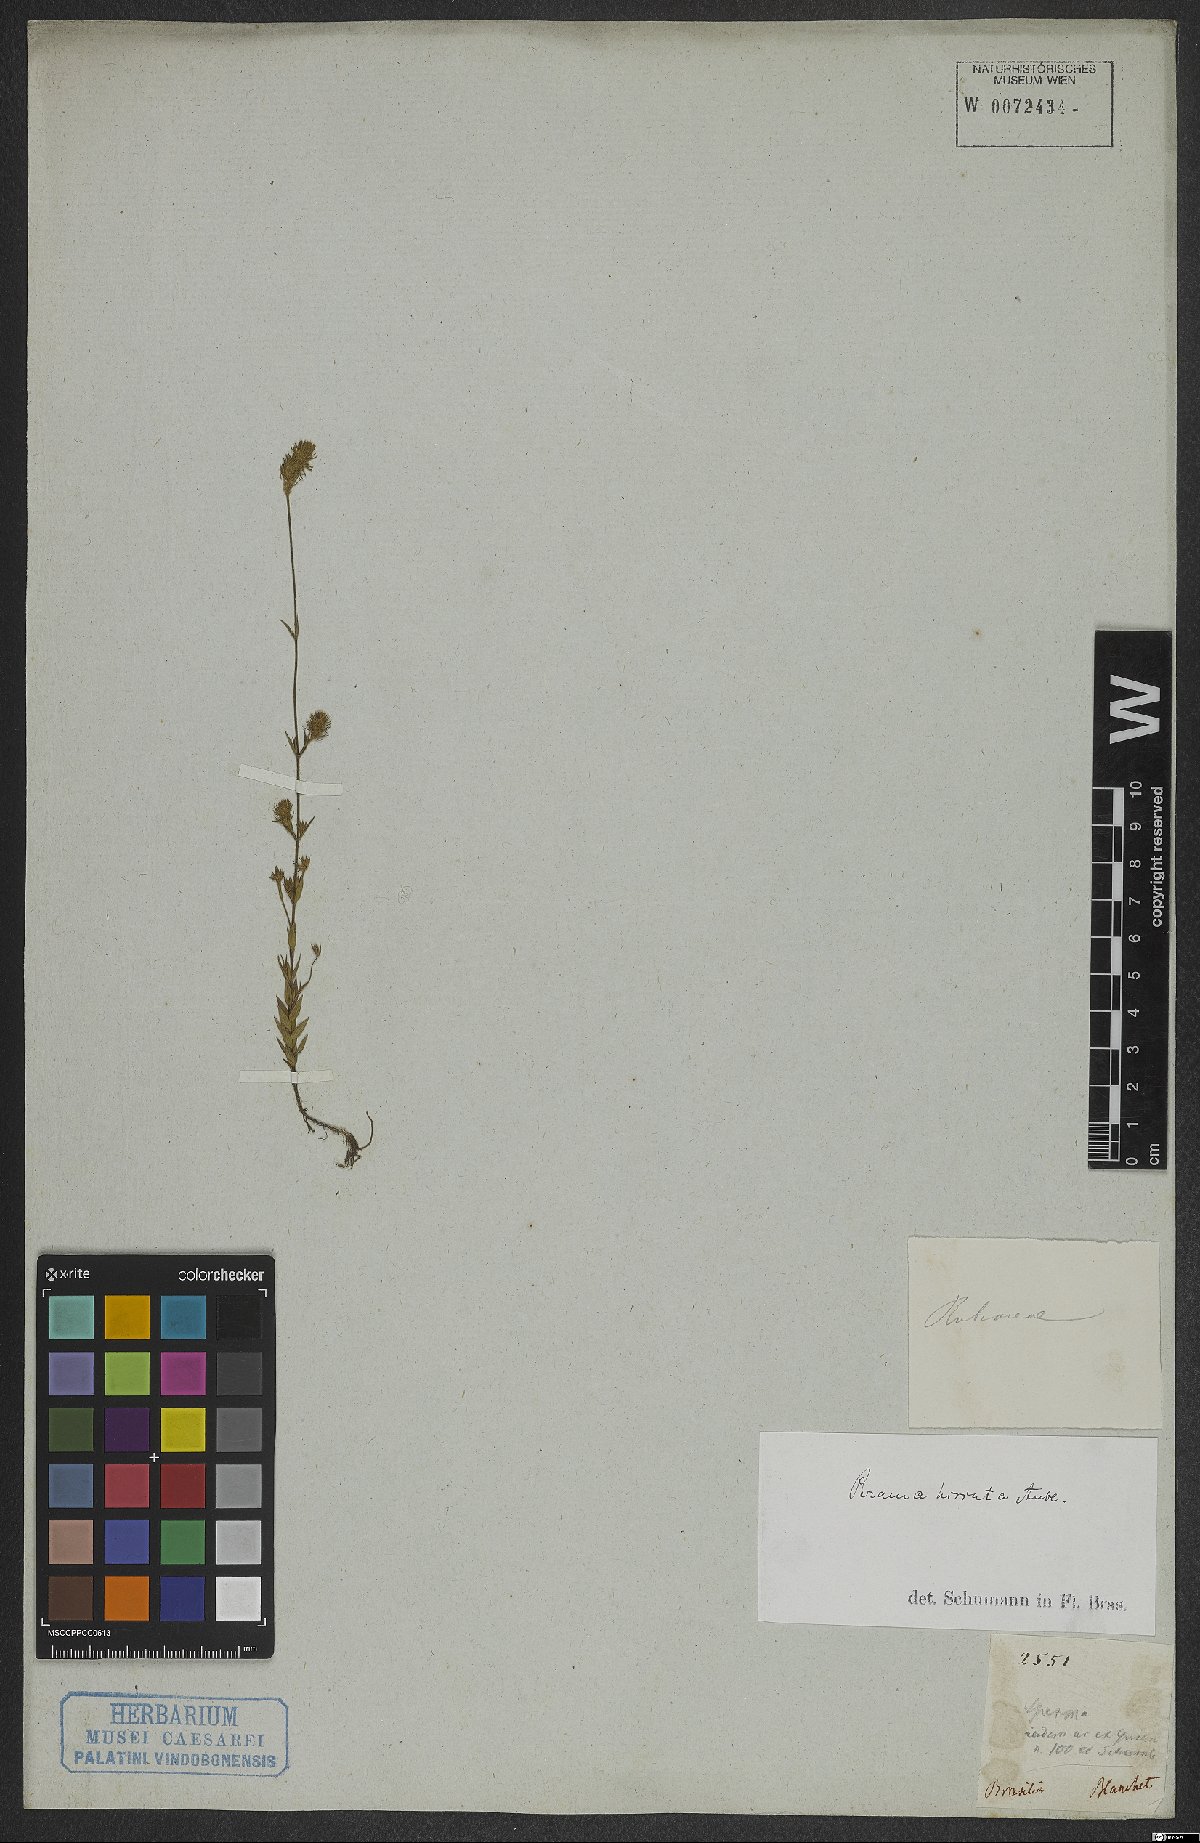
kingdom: Plantae
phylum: Tracheophyta
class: Magnoliopsida
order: Gentianales
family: Rubiaceae
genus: Perama
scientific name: Perama hirsuta
